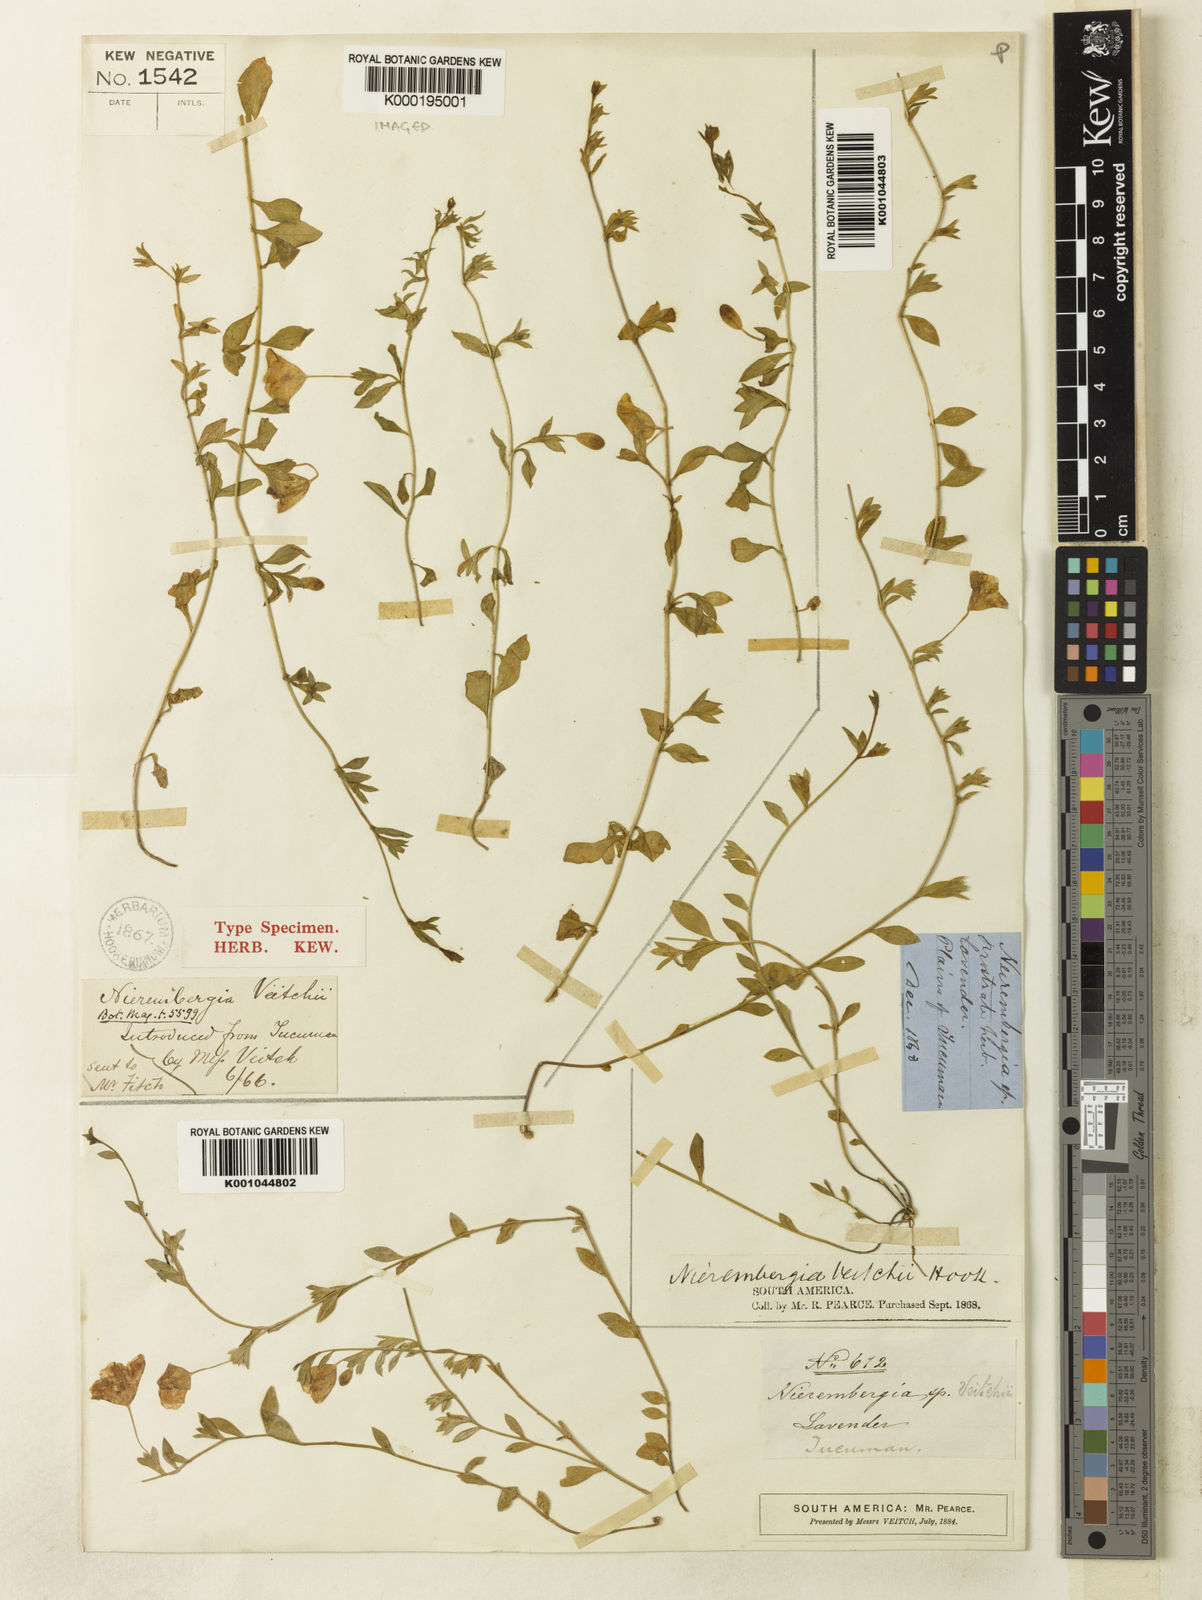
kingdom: Plantae
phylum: Tracheophyta
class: Magnoliopsida
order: Solanales
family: Solanaceae
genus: Nierembergia
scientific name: Nierembergia veitchii
